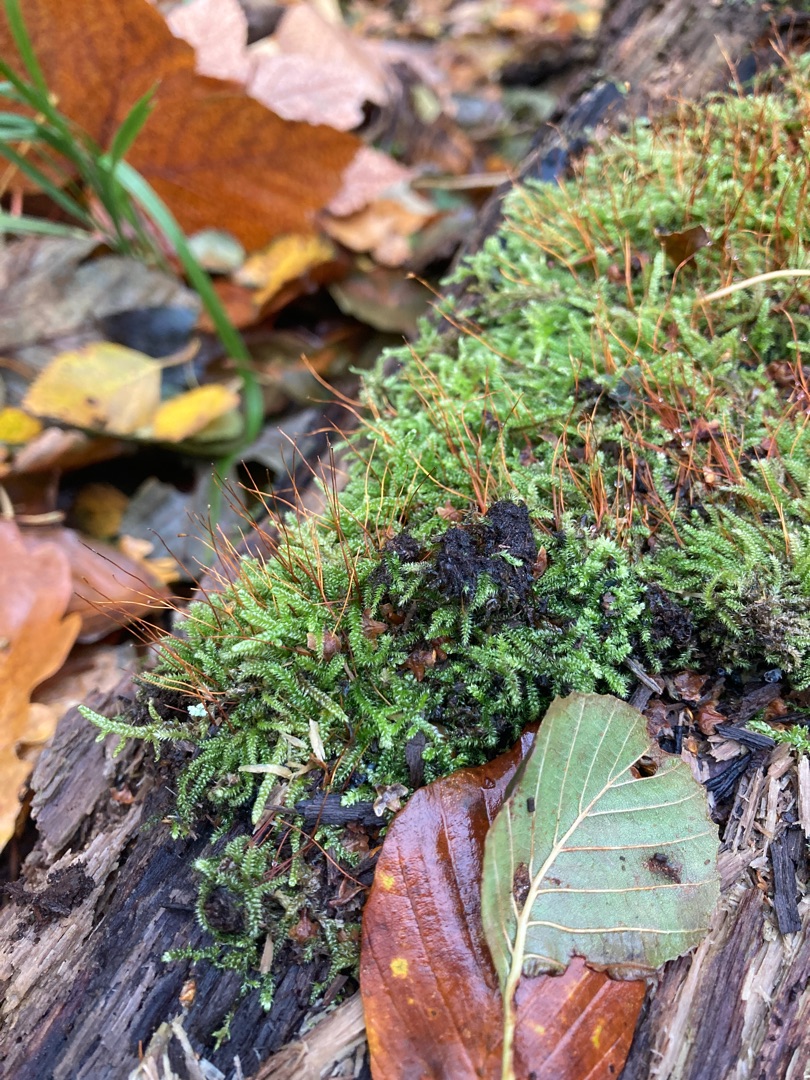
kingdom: Plantae
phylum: Bryophyta
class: Bryopsida
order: Hypnales
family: Plagiotheciaceae
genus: Herzogiella
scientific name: Herzogiella seligeri
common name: Stub-pølsekapsel
